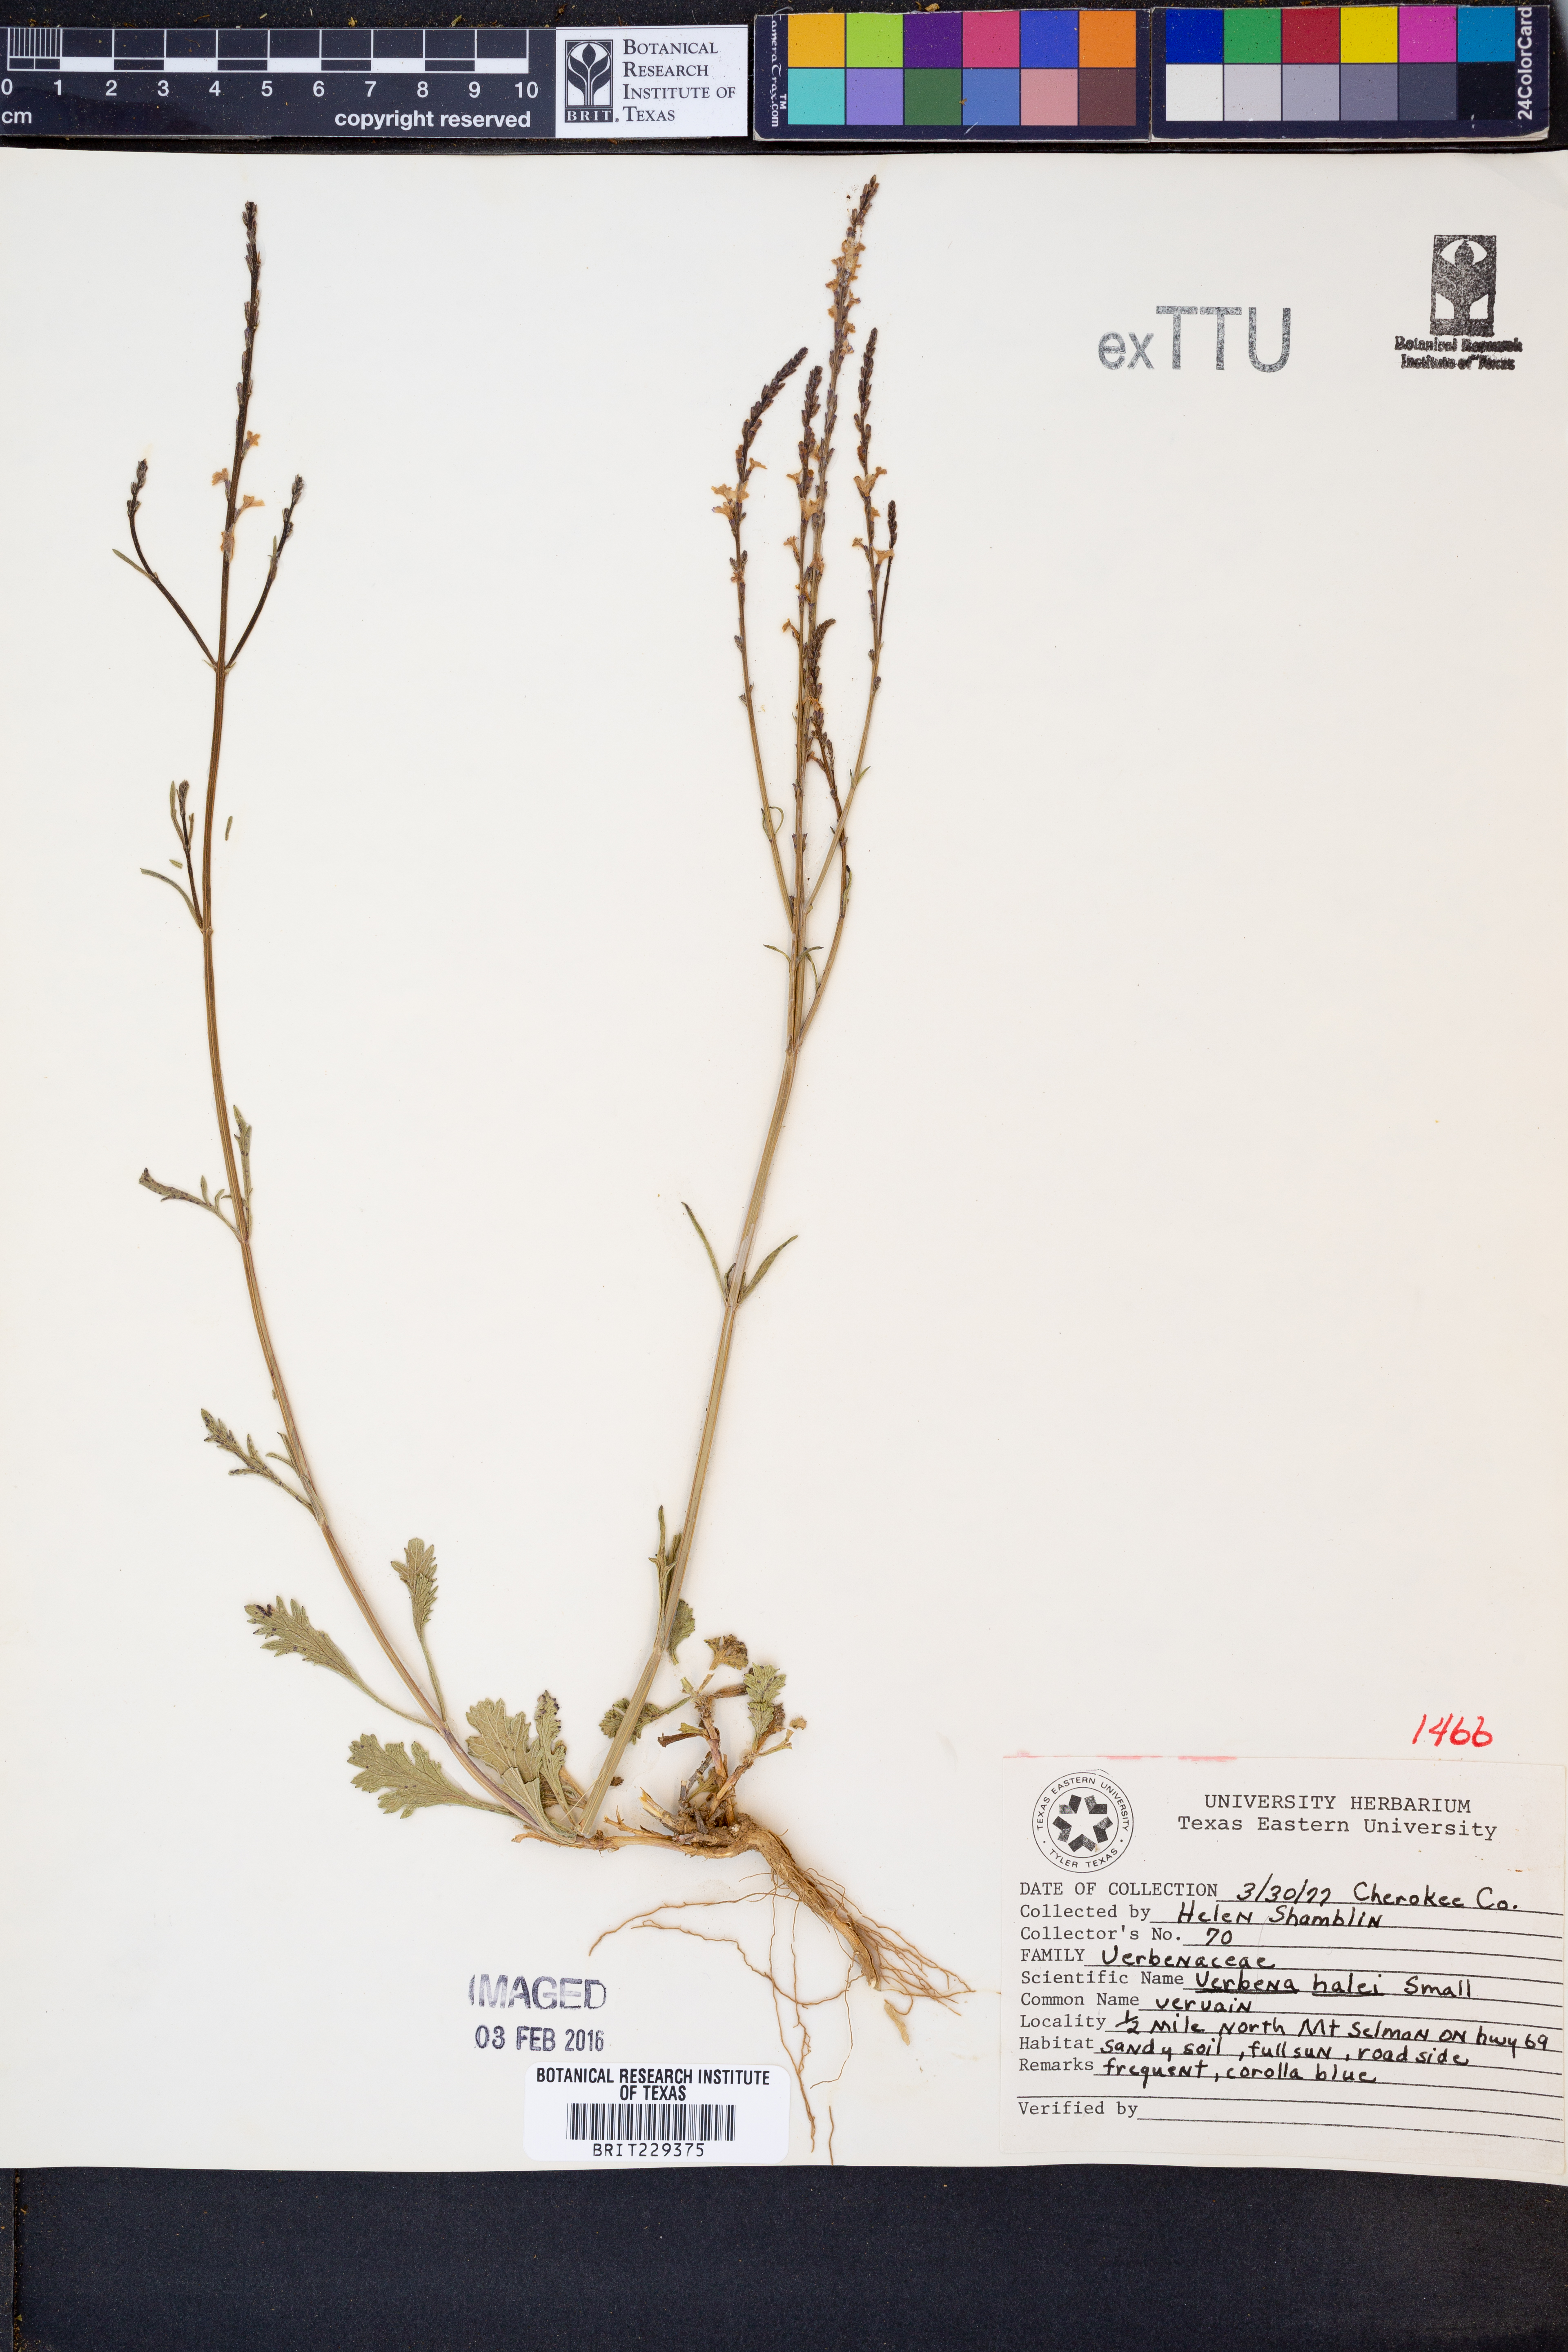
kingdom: Plantae
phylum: Tracheophyta
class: Magnoliopsida
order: Lamiales
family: Verbenaceae
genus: Verbena
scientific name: Verbena halei
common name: Texas vervain
